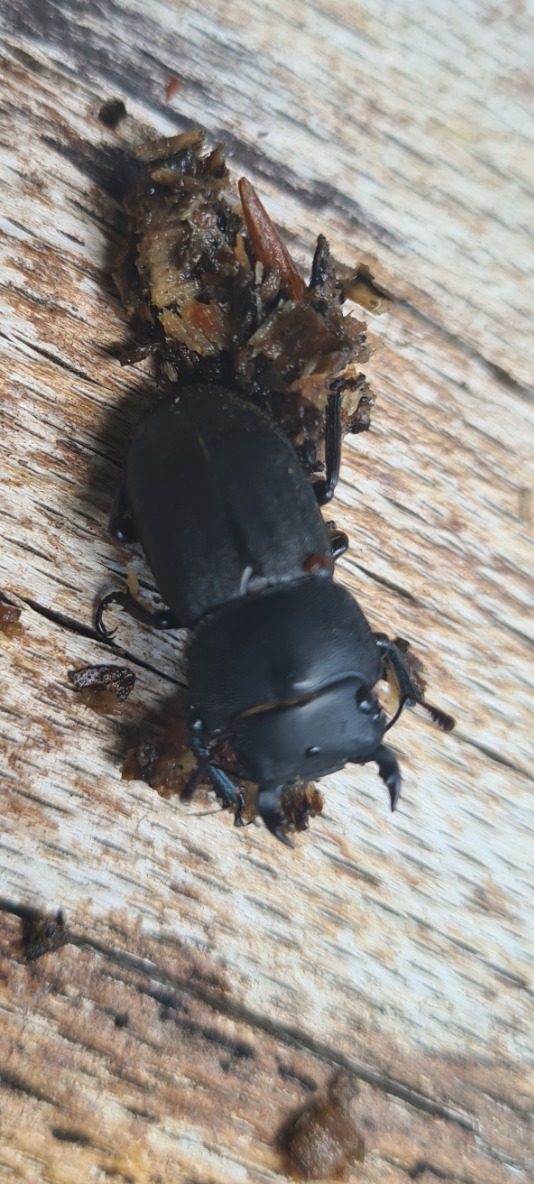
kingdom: Animalia
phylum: Arthropoda
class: Insecta
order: Coleoptera
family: Lucanidae
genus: Dorcus
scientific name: Dorcus parallelipipedus
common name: Bøghjort
